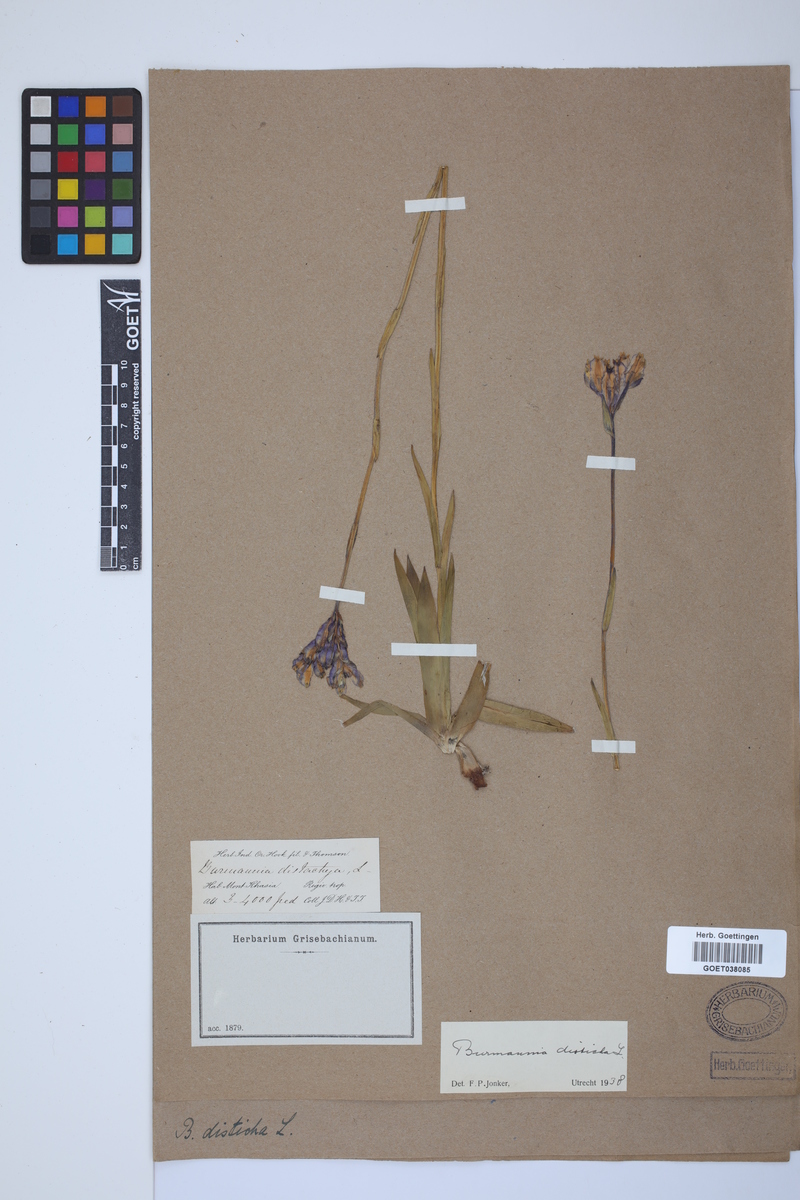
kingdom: Plantae
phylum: Tracheophyta
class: Liliopsida
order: Dioscoreales
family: Burmanniaceae
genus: Burmannia
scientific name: Burmannia disticha
